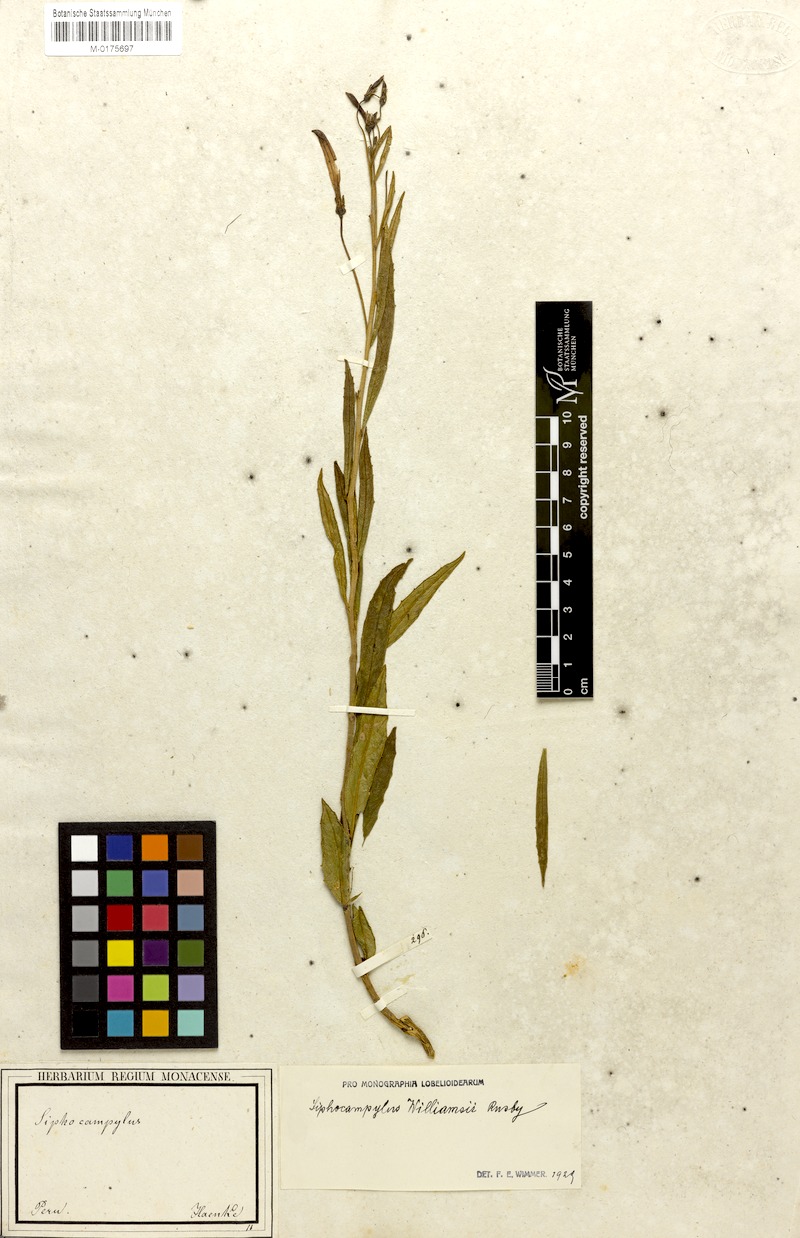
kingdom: Plantae
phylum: Tracheophyta
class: Magnoliopsida
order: Asterales
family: Campanulaceae
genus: Siphocampylus
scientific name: Siphocampylus williamsii
